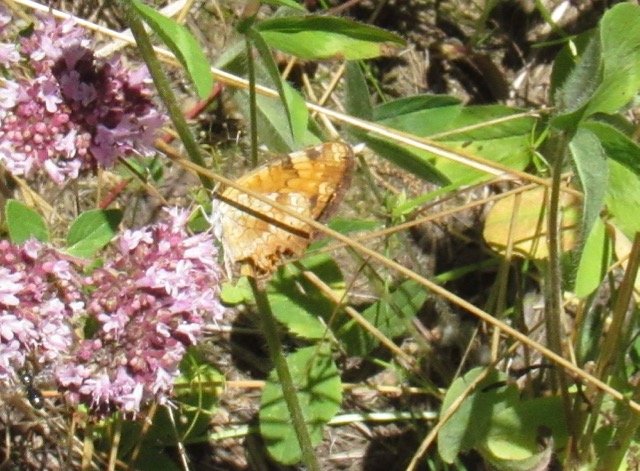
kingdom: Animalia
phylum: Arthropoda
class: Insecta
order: Lepidoptera
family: Nymphalidae
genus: Phyciodes
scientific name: Phyciodes
